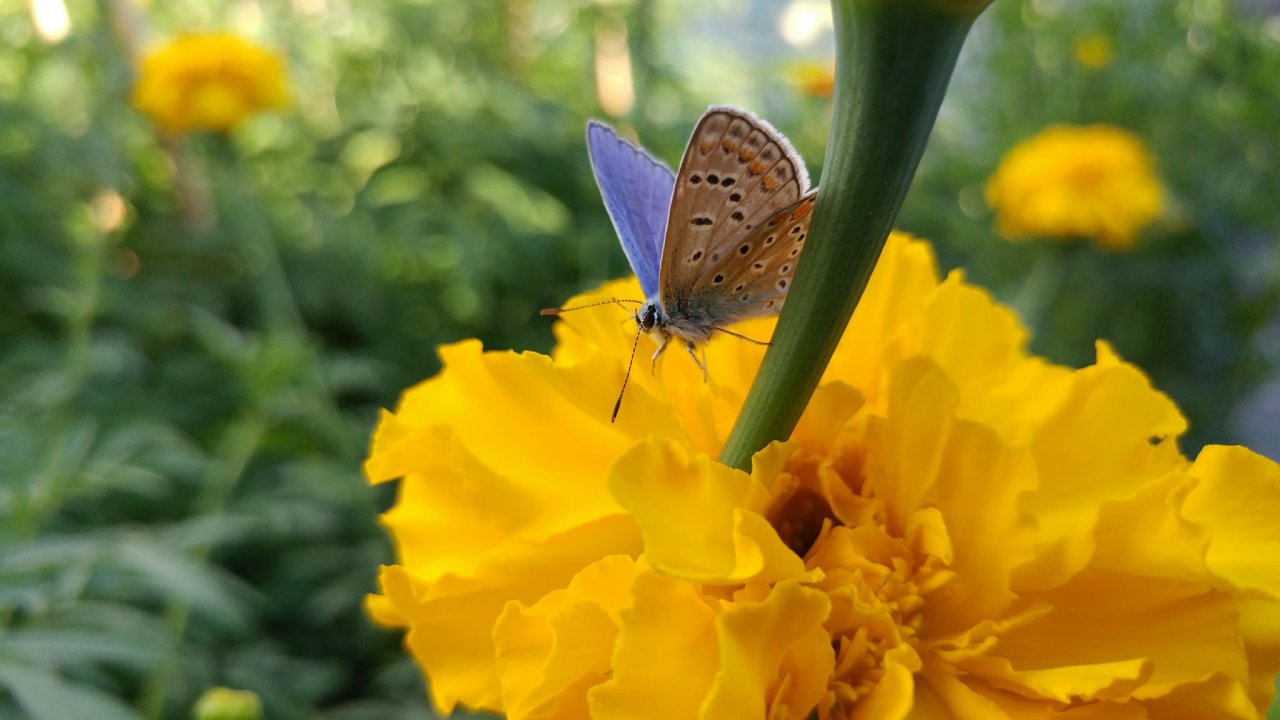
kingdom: Animalia
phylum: Arthropoda
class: Insecta
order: Lepidoptera
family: Lycaenidae
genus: Polyommatus
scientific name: Polyommatus icarus
